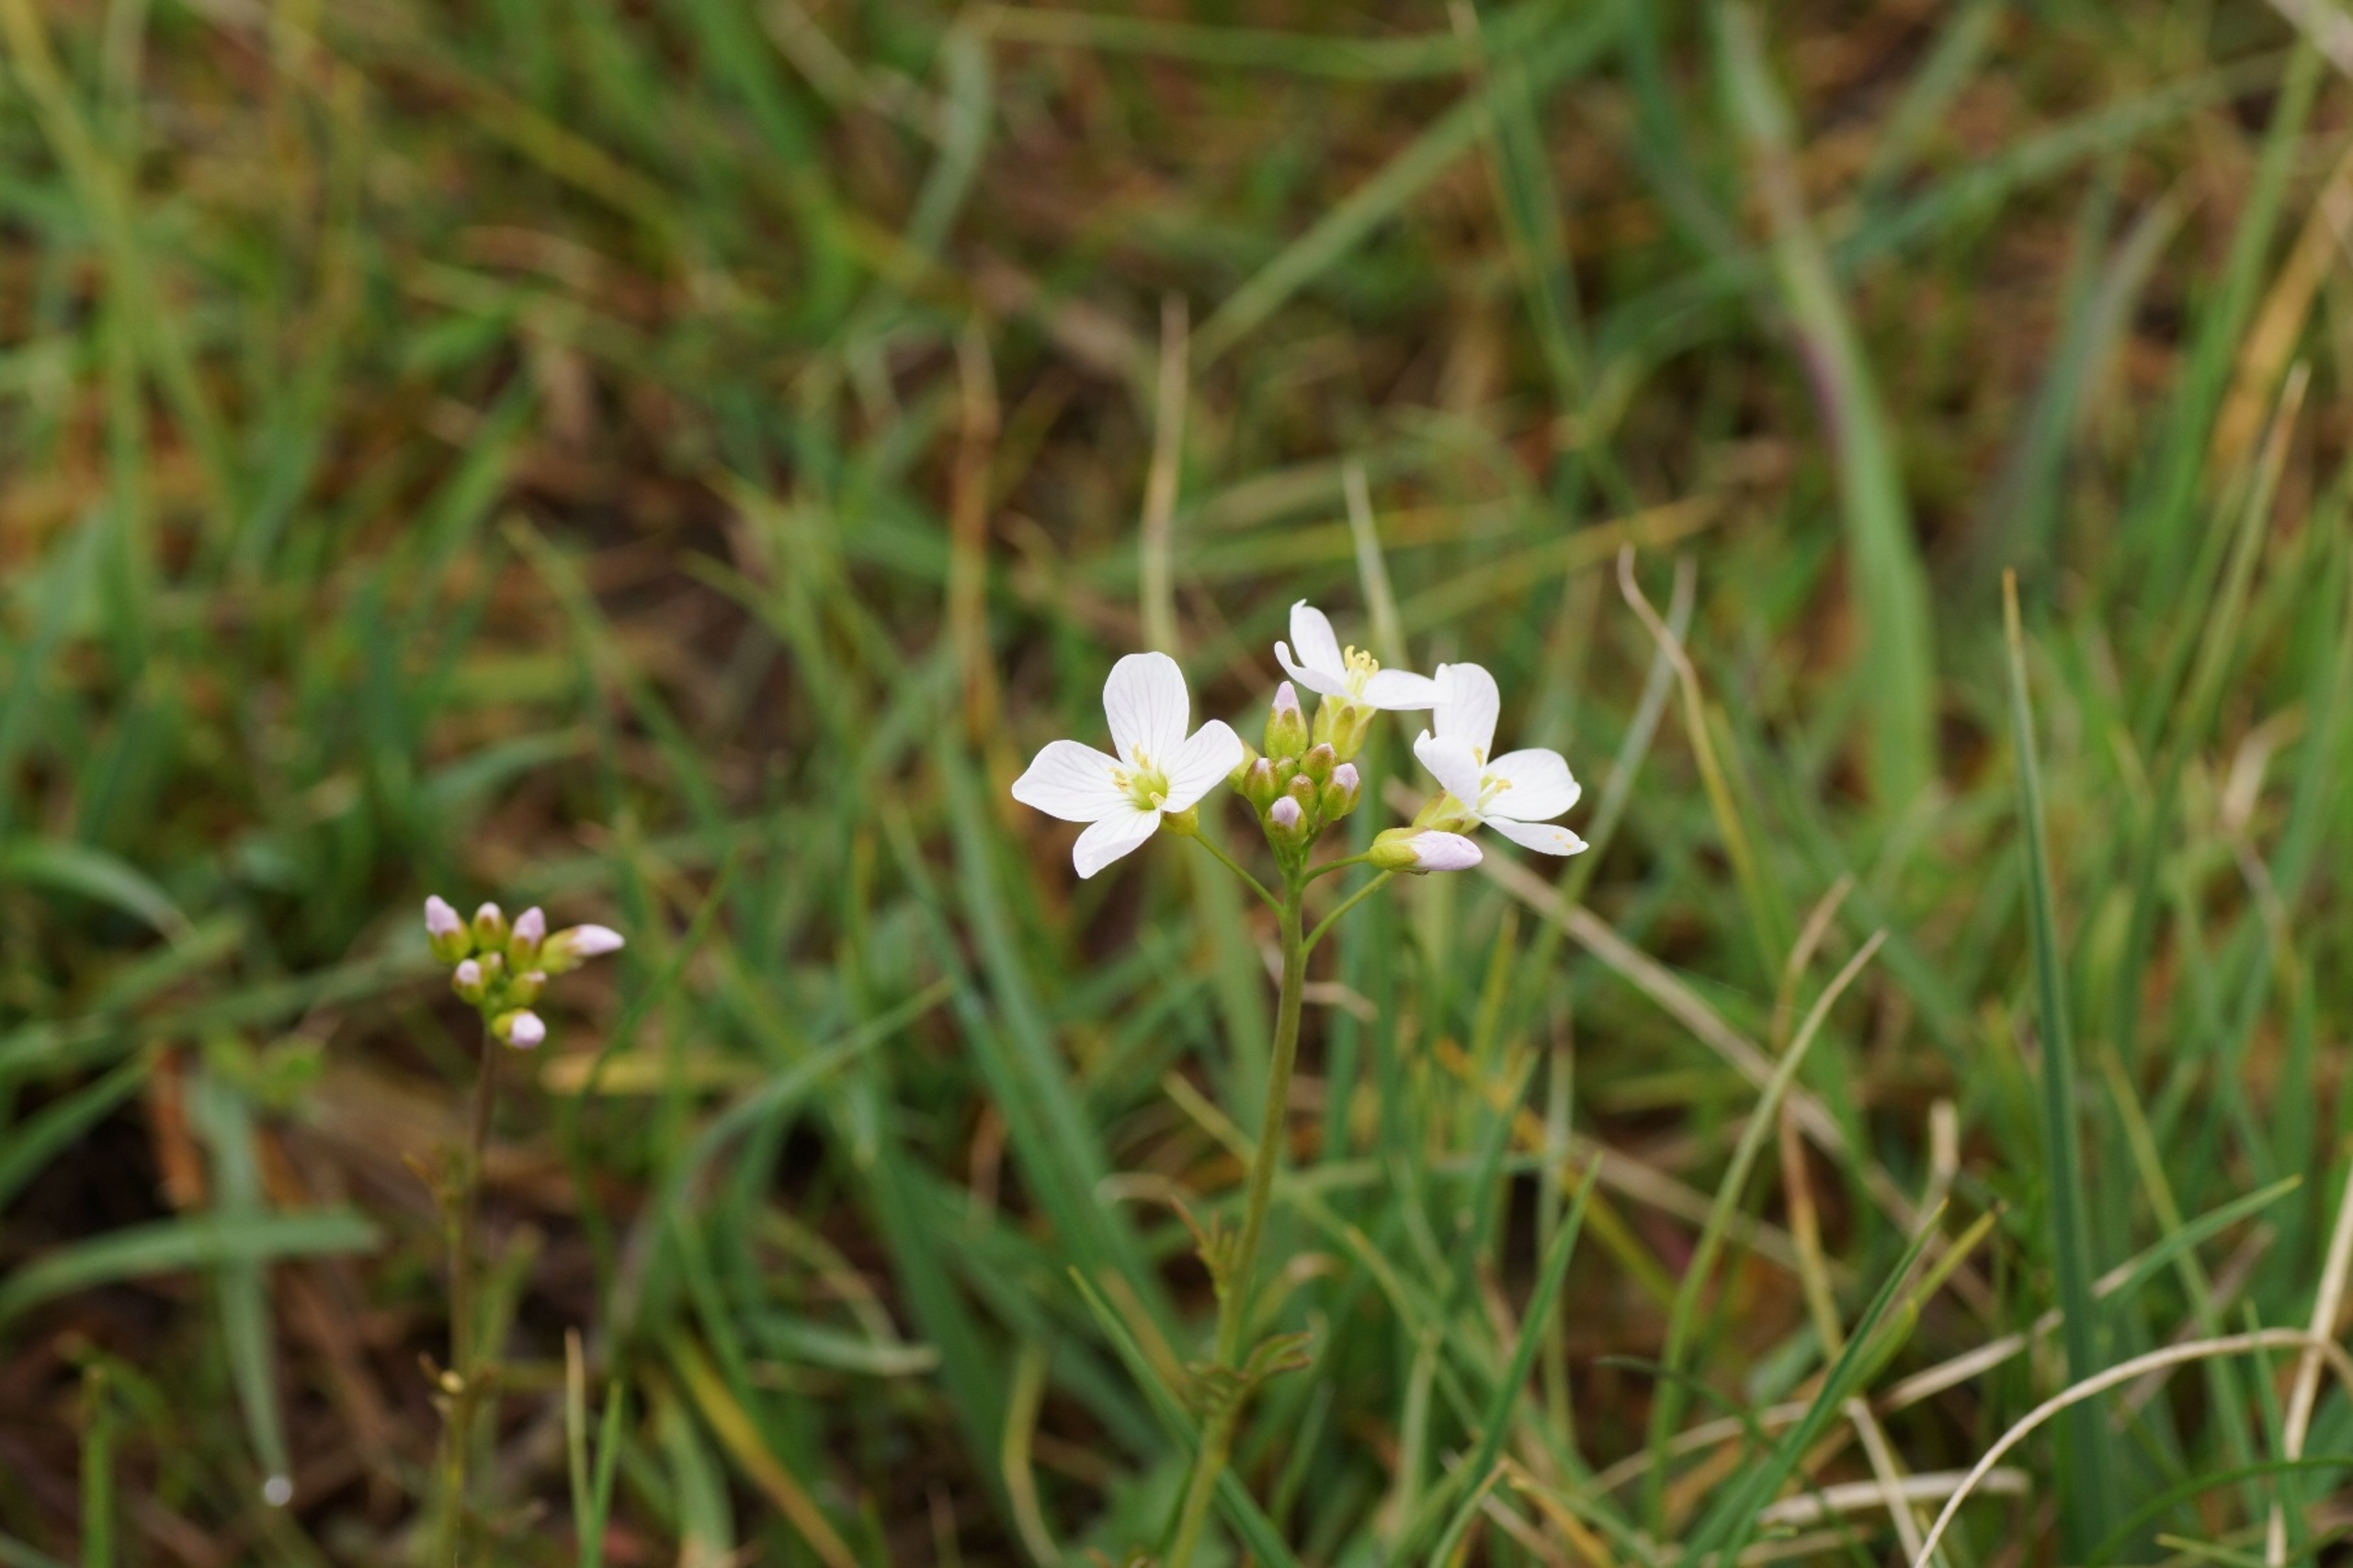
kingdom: Plantae
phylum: Tracheophyta
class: Magnoliopsida
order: Brassicales
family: Brassicaceae
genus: Cardamine
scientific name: Cardamine pratensis
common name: Engkarse
